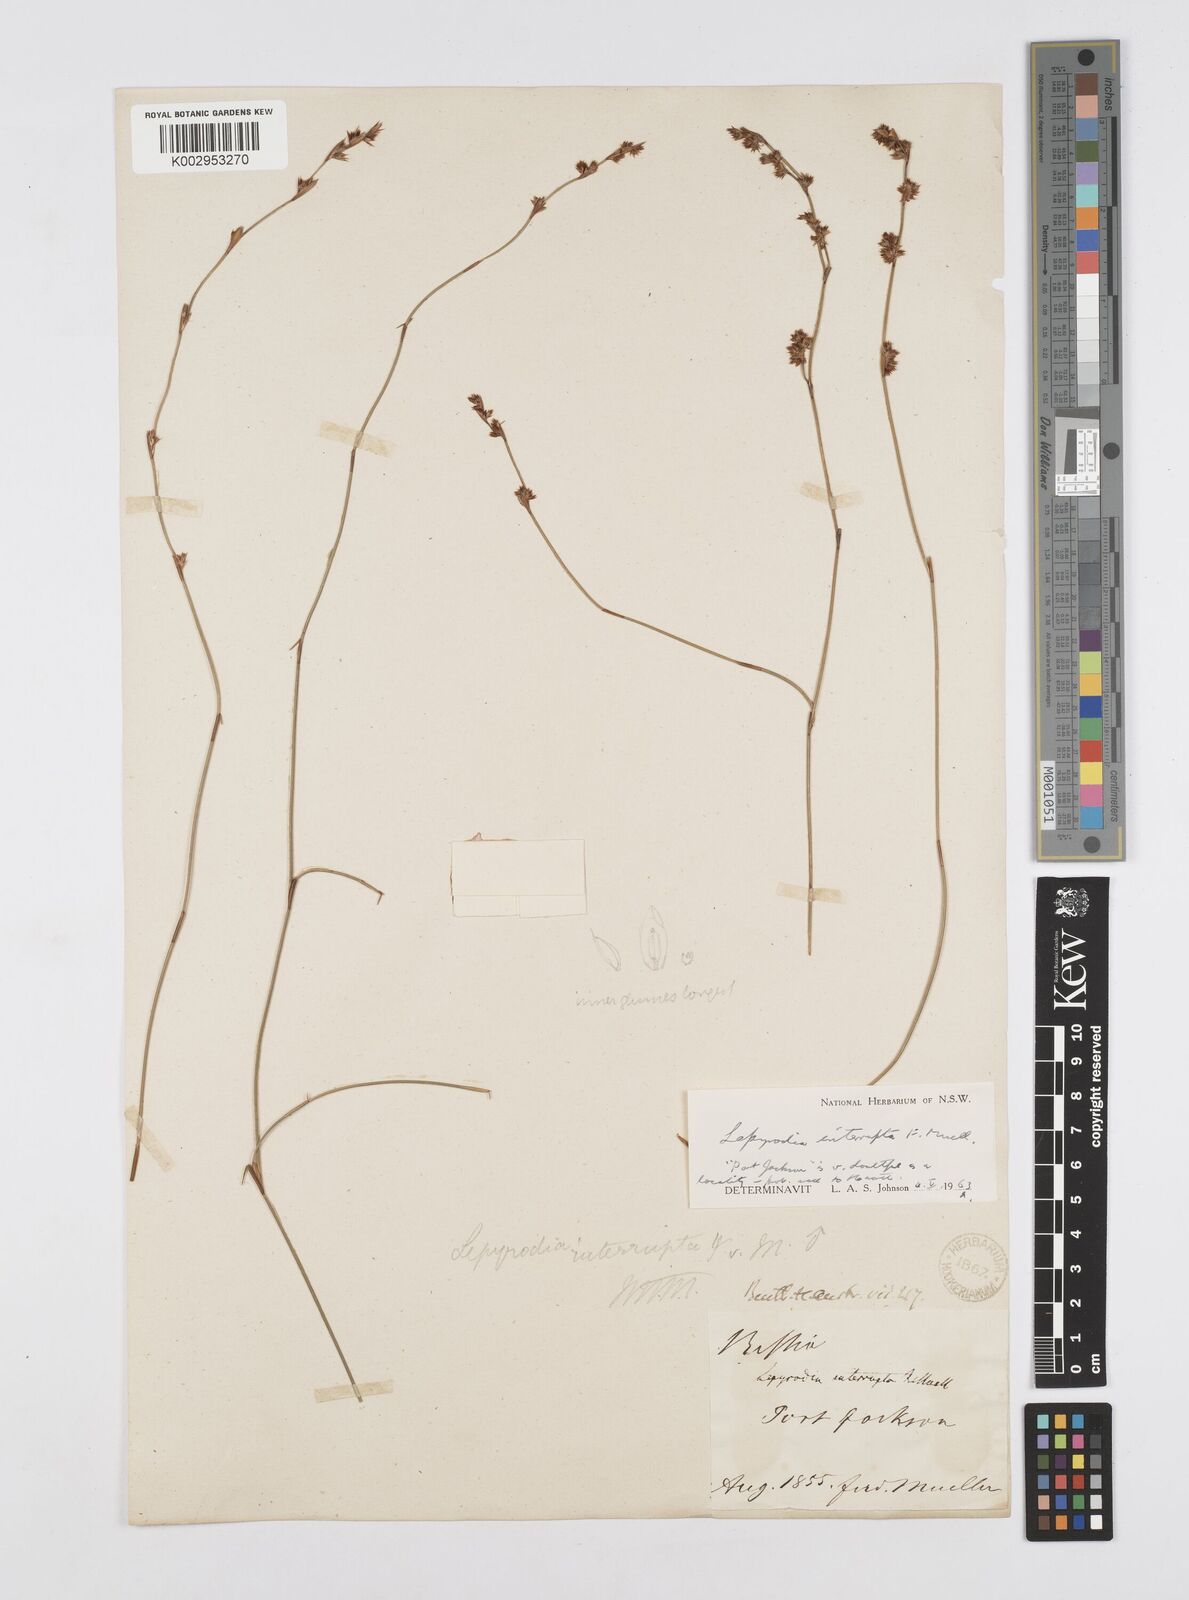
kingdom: Plantae
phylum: Tracheophyta
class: Liliopsida
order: Poales
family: Restionaceae
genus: Sporadanthus
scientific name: Sporadanthus interruptus
